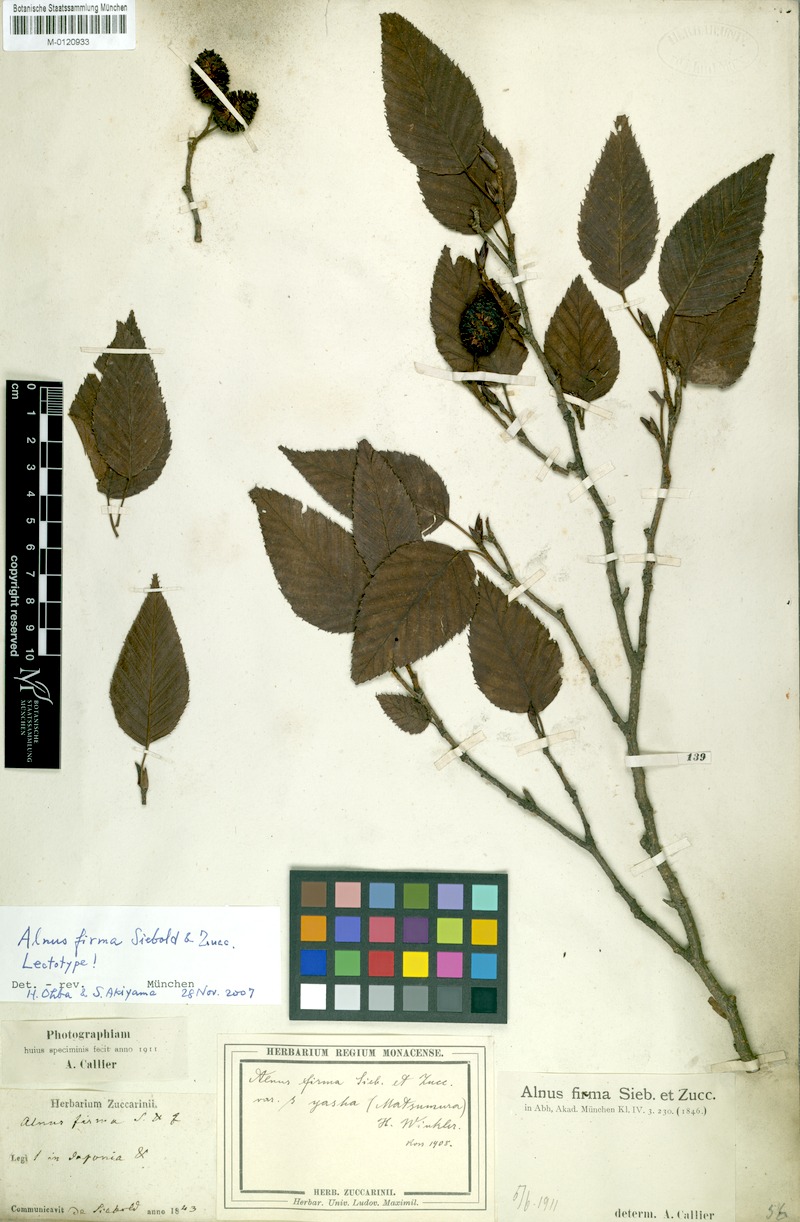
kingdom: Plantae
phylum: Tracheophyta
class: Magnoliopsida
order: Fagales
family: Betulaceae
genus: Alnus
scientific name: Alnus firma
